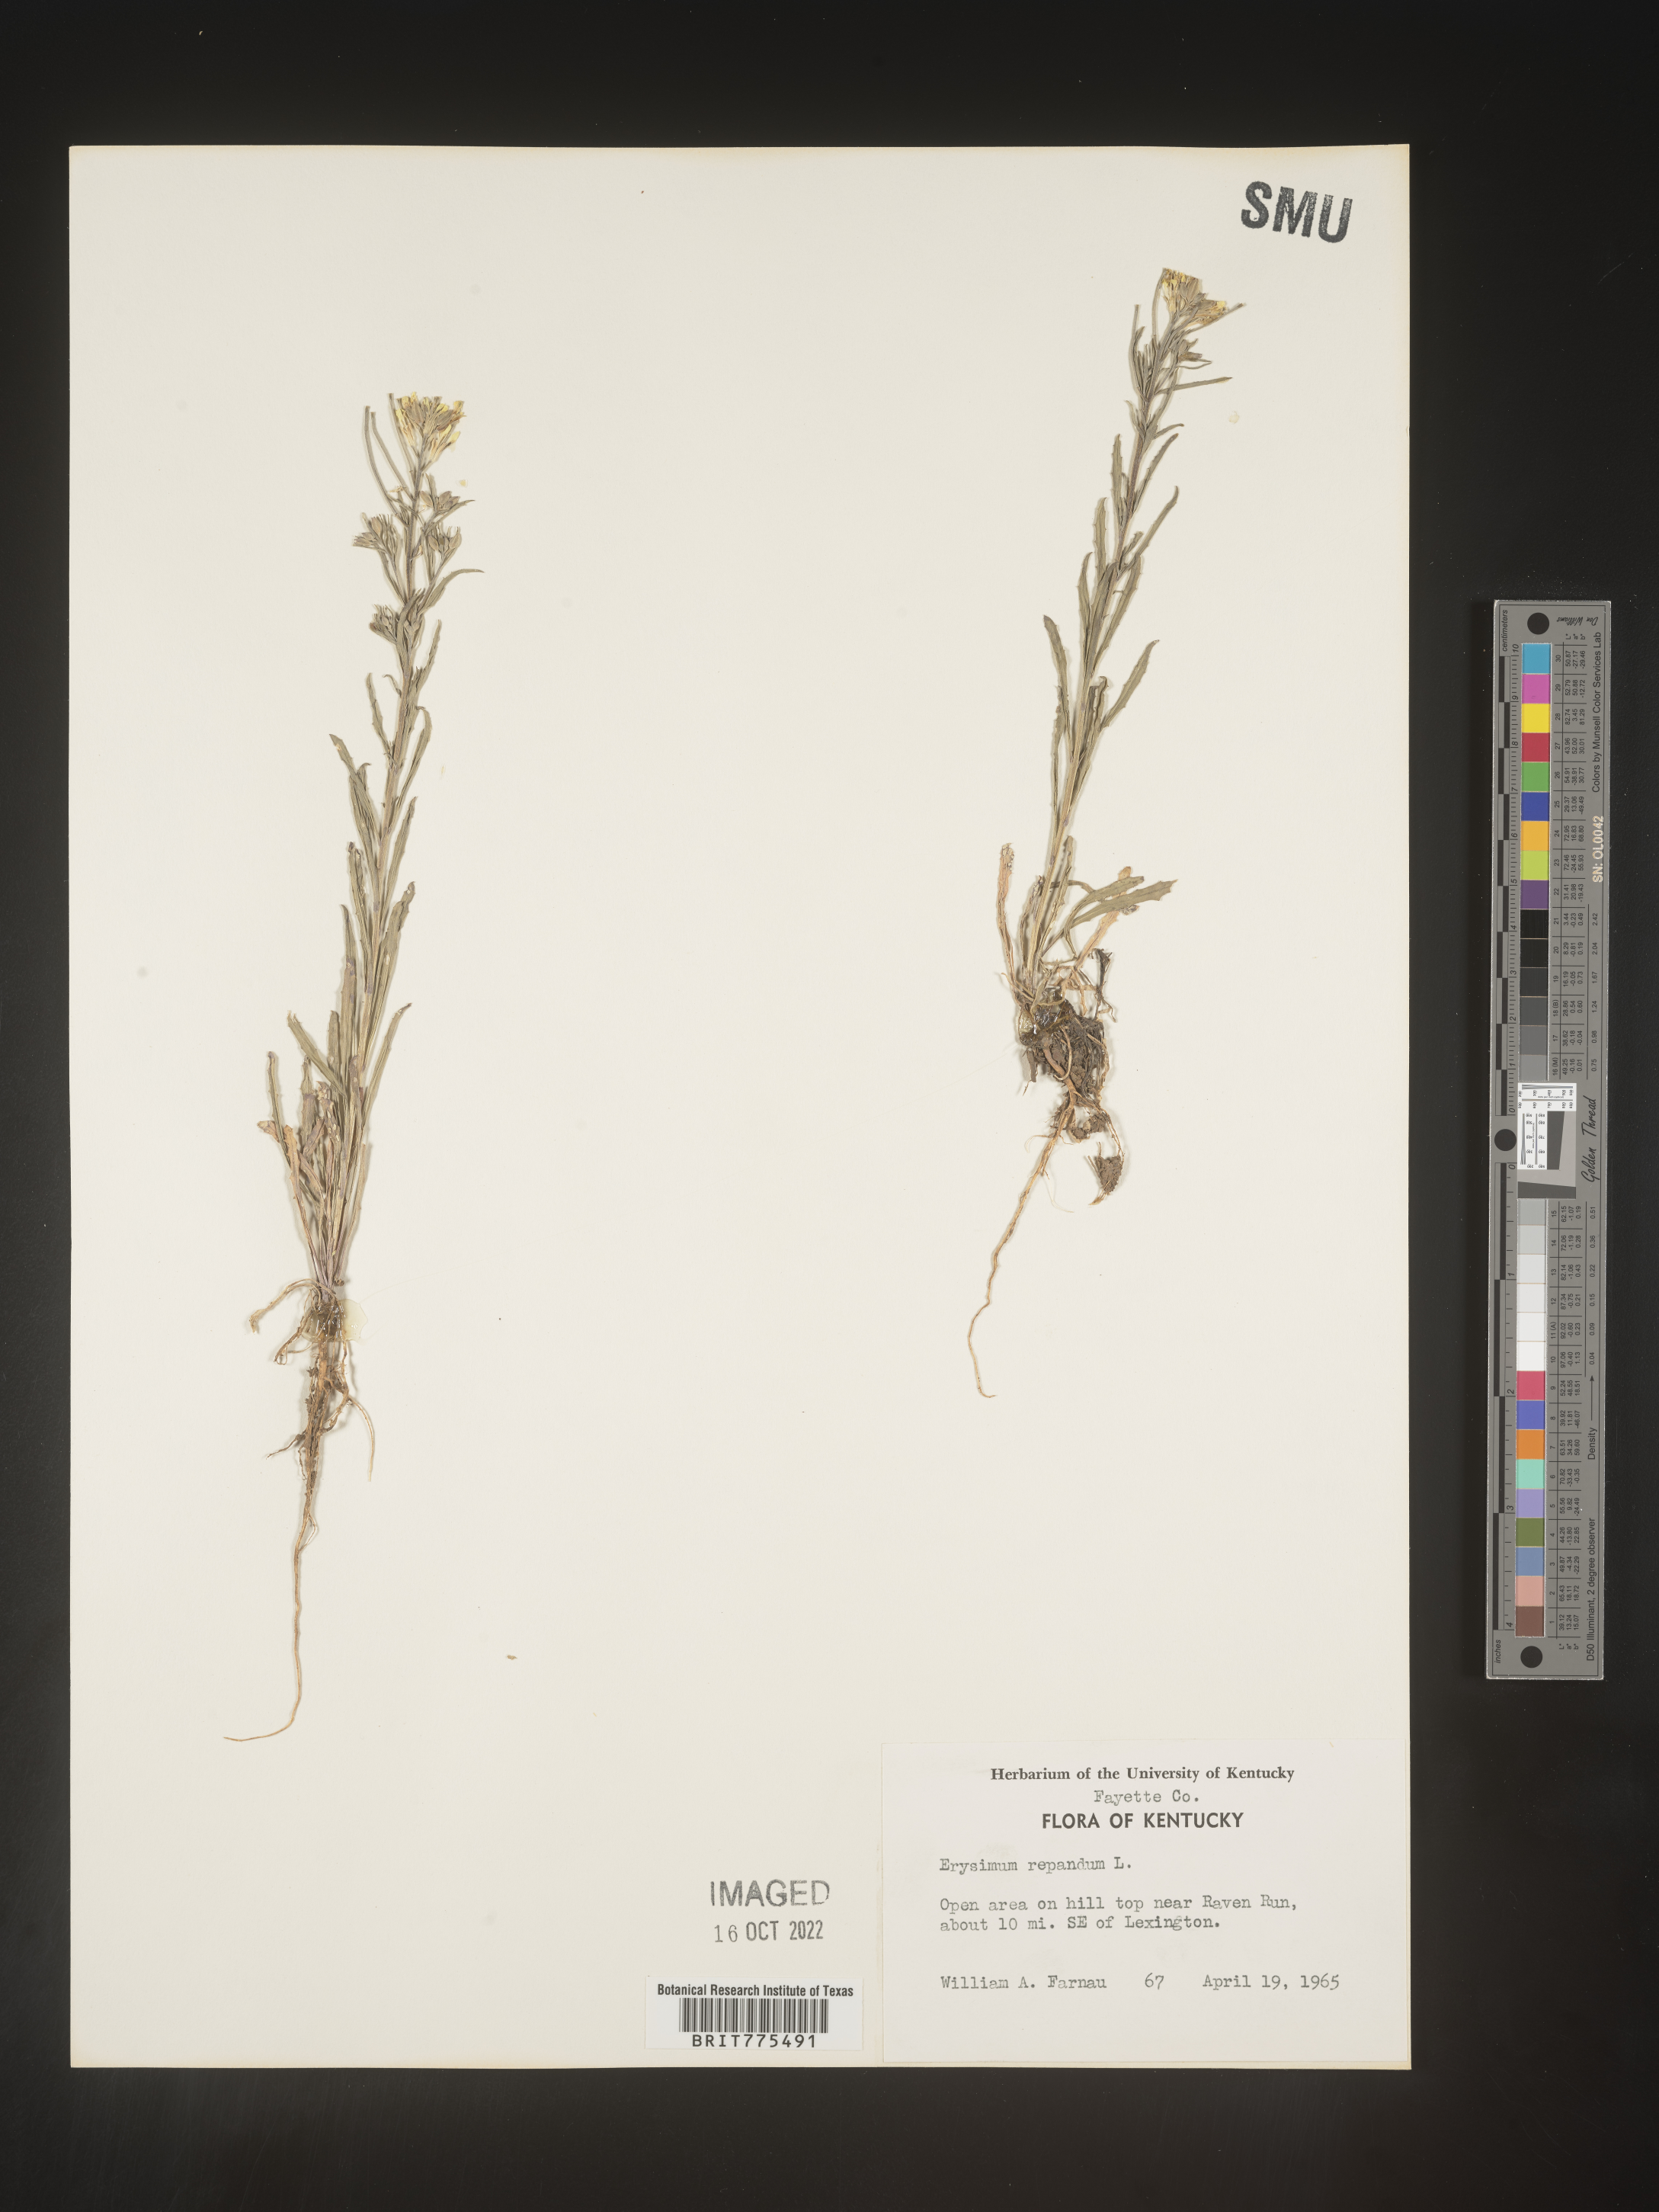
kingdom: Plantae
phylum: Tracheophyta
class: Magnoliopsida
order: Brassicales
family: Brassicaceae
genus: Erysimum
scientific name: Erysimum repandum
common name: Spreading wallflower
